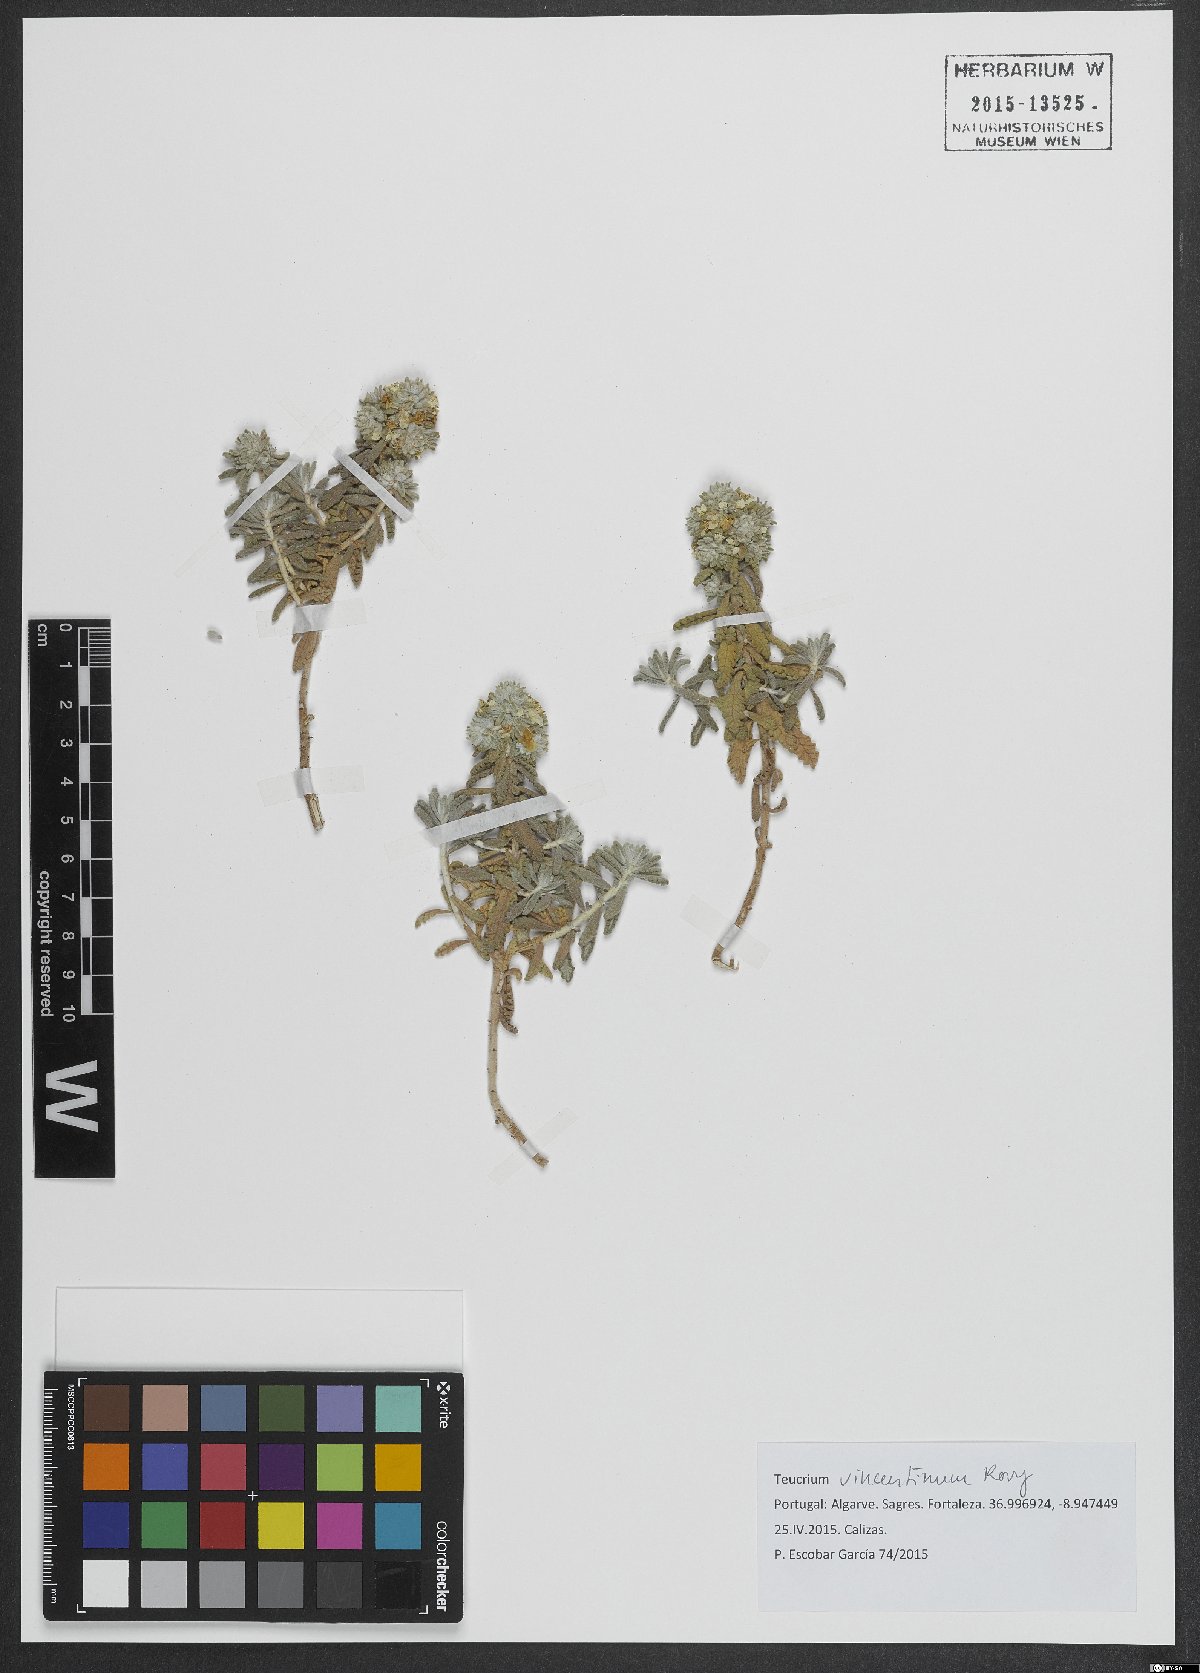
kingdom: Plantae
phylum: Tracheophyta
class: Magnoliopsida
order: Lamiales
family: Lamiaceae
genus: Teucrium
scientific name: Teucrium vincentinum
